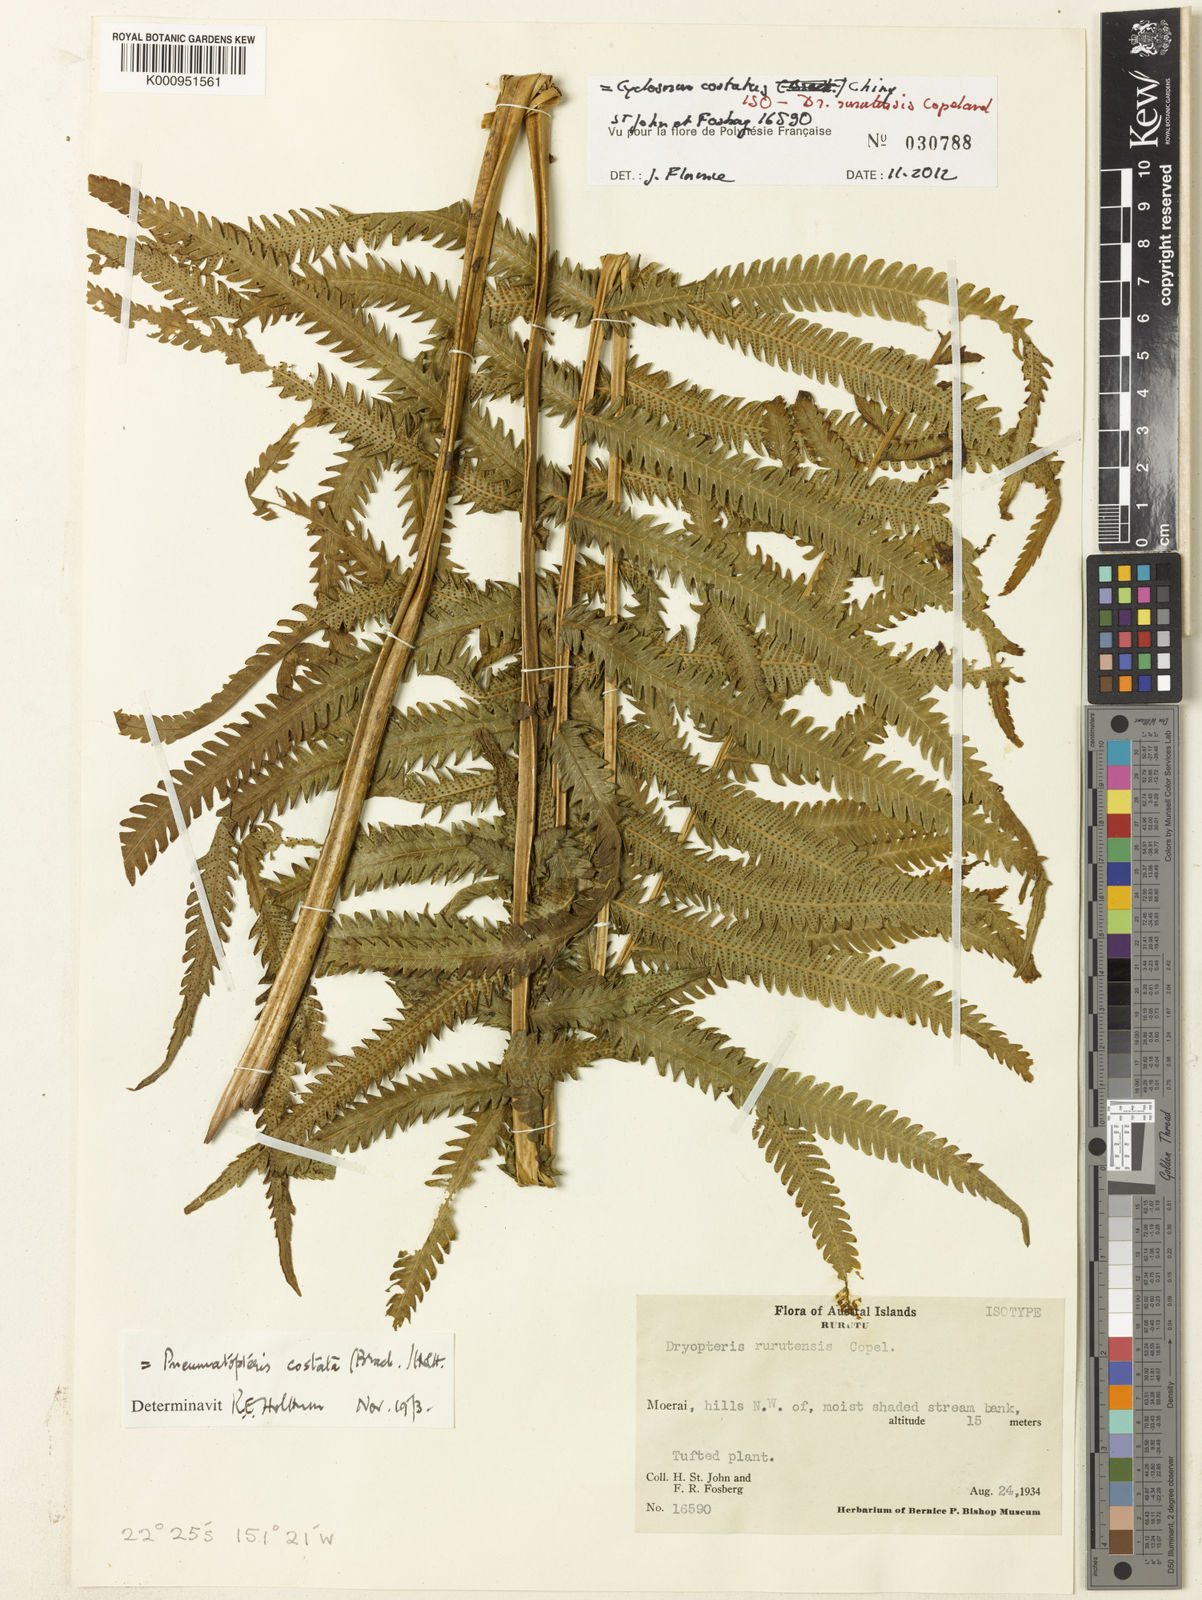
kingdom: Plantae
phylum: Tracheophyta
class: Polypodiopsida
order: Polypodiales
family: Thelypteridaceae
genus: Reholttumia
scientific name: Reholttumia costata
